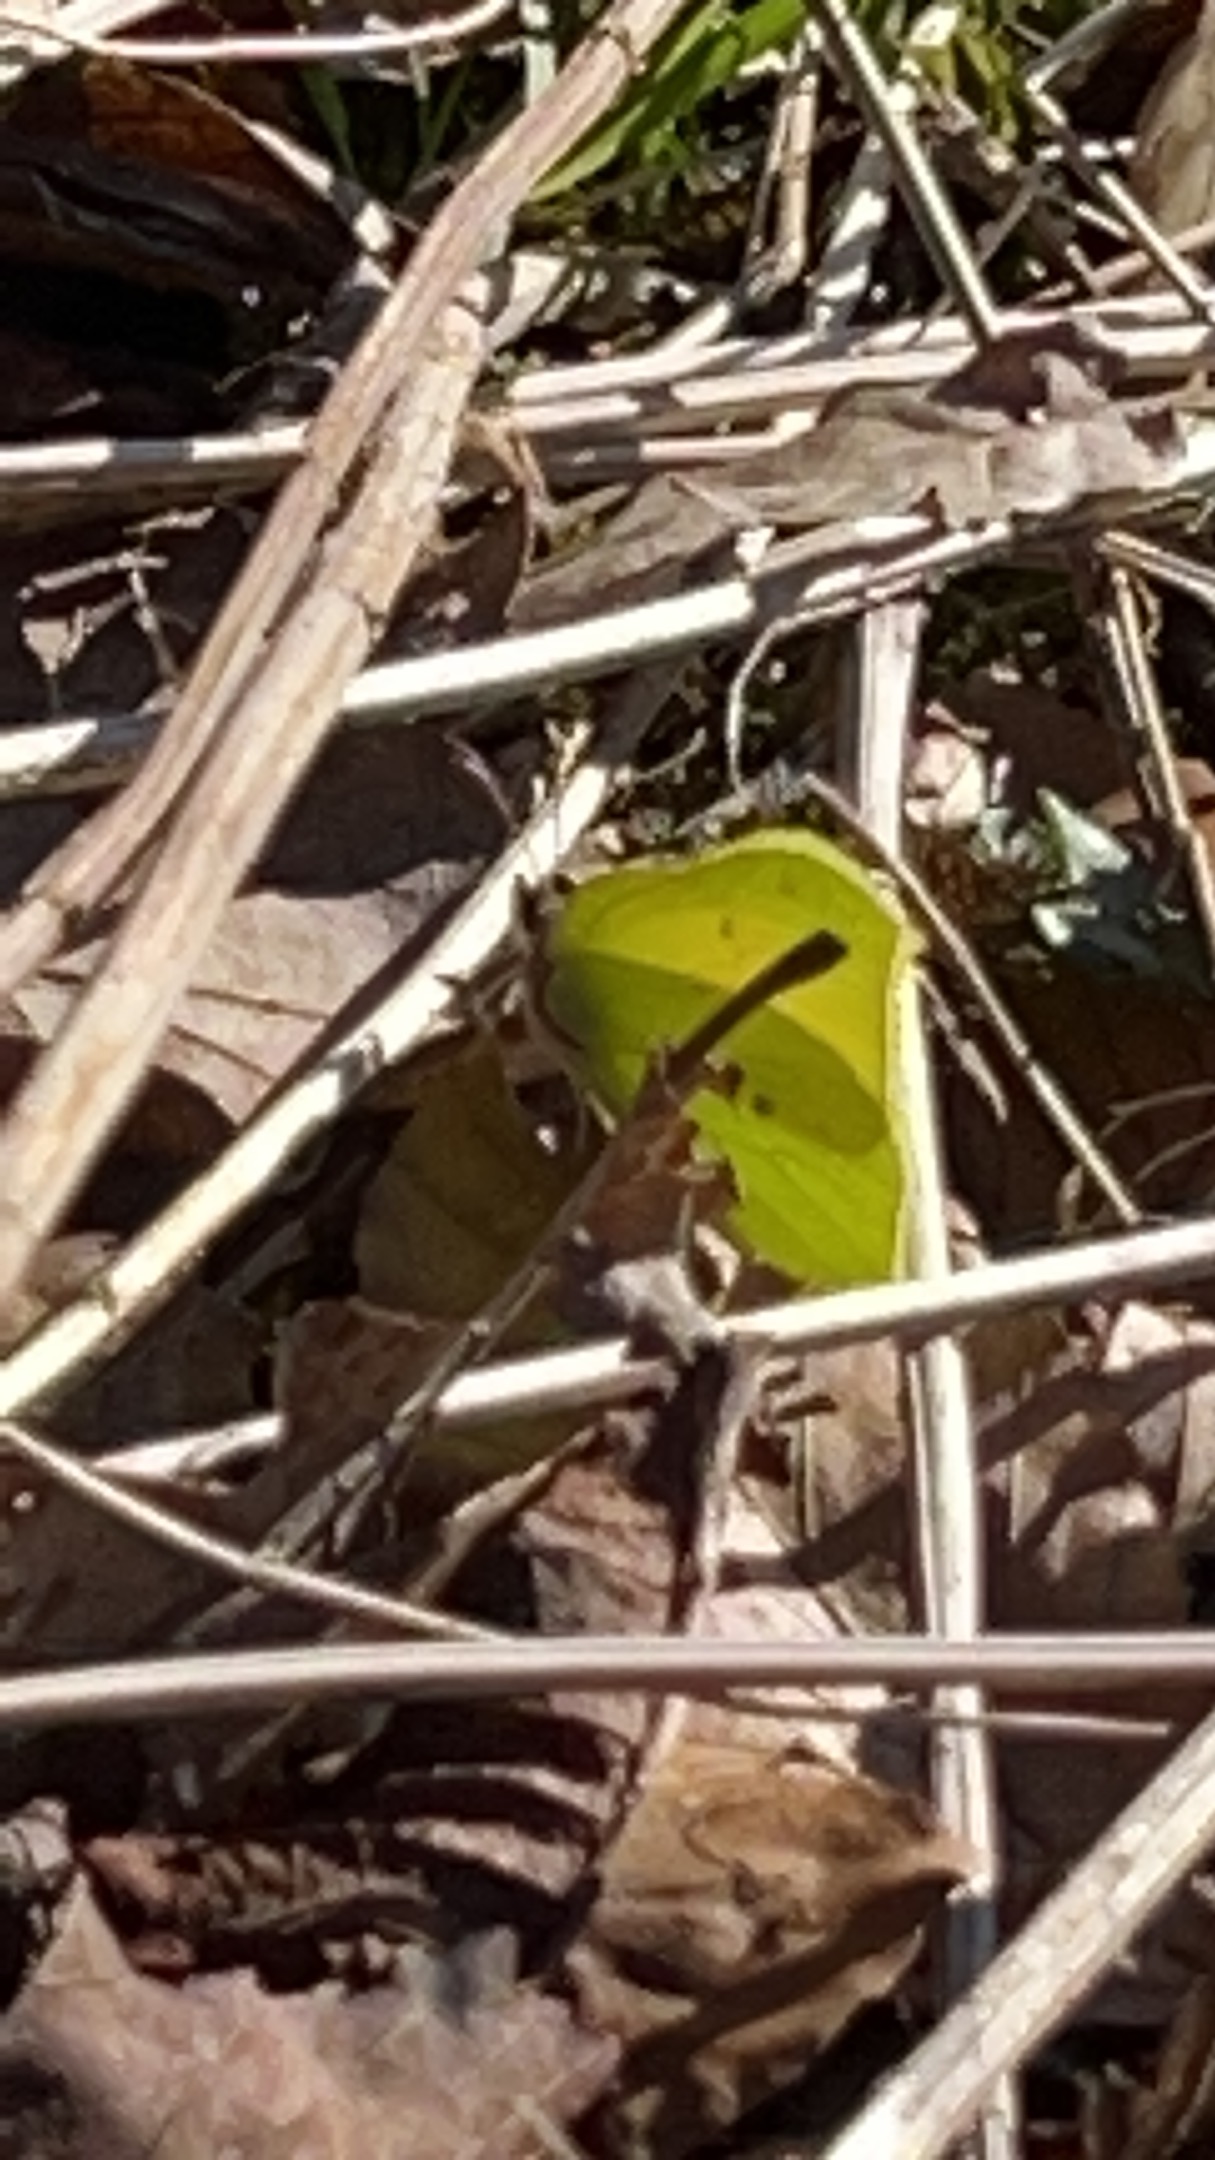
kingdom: Animalia
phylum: Arthropoda
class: Insecta
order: Lepidoptera
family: Pieridae
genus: Gonepteryx
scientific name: Gonepteryx rhamni
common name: Citronsommerfugl
